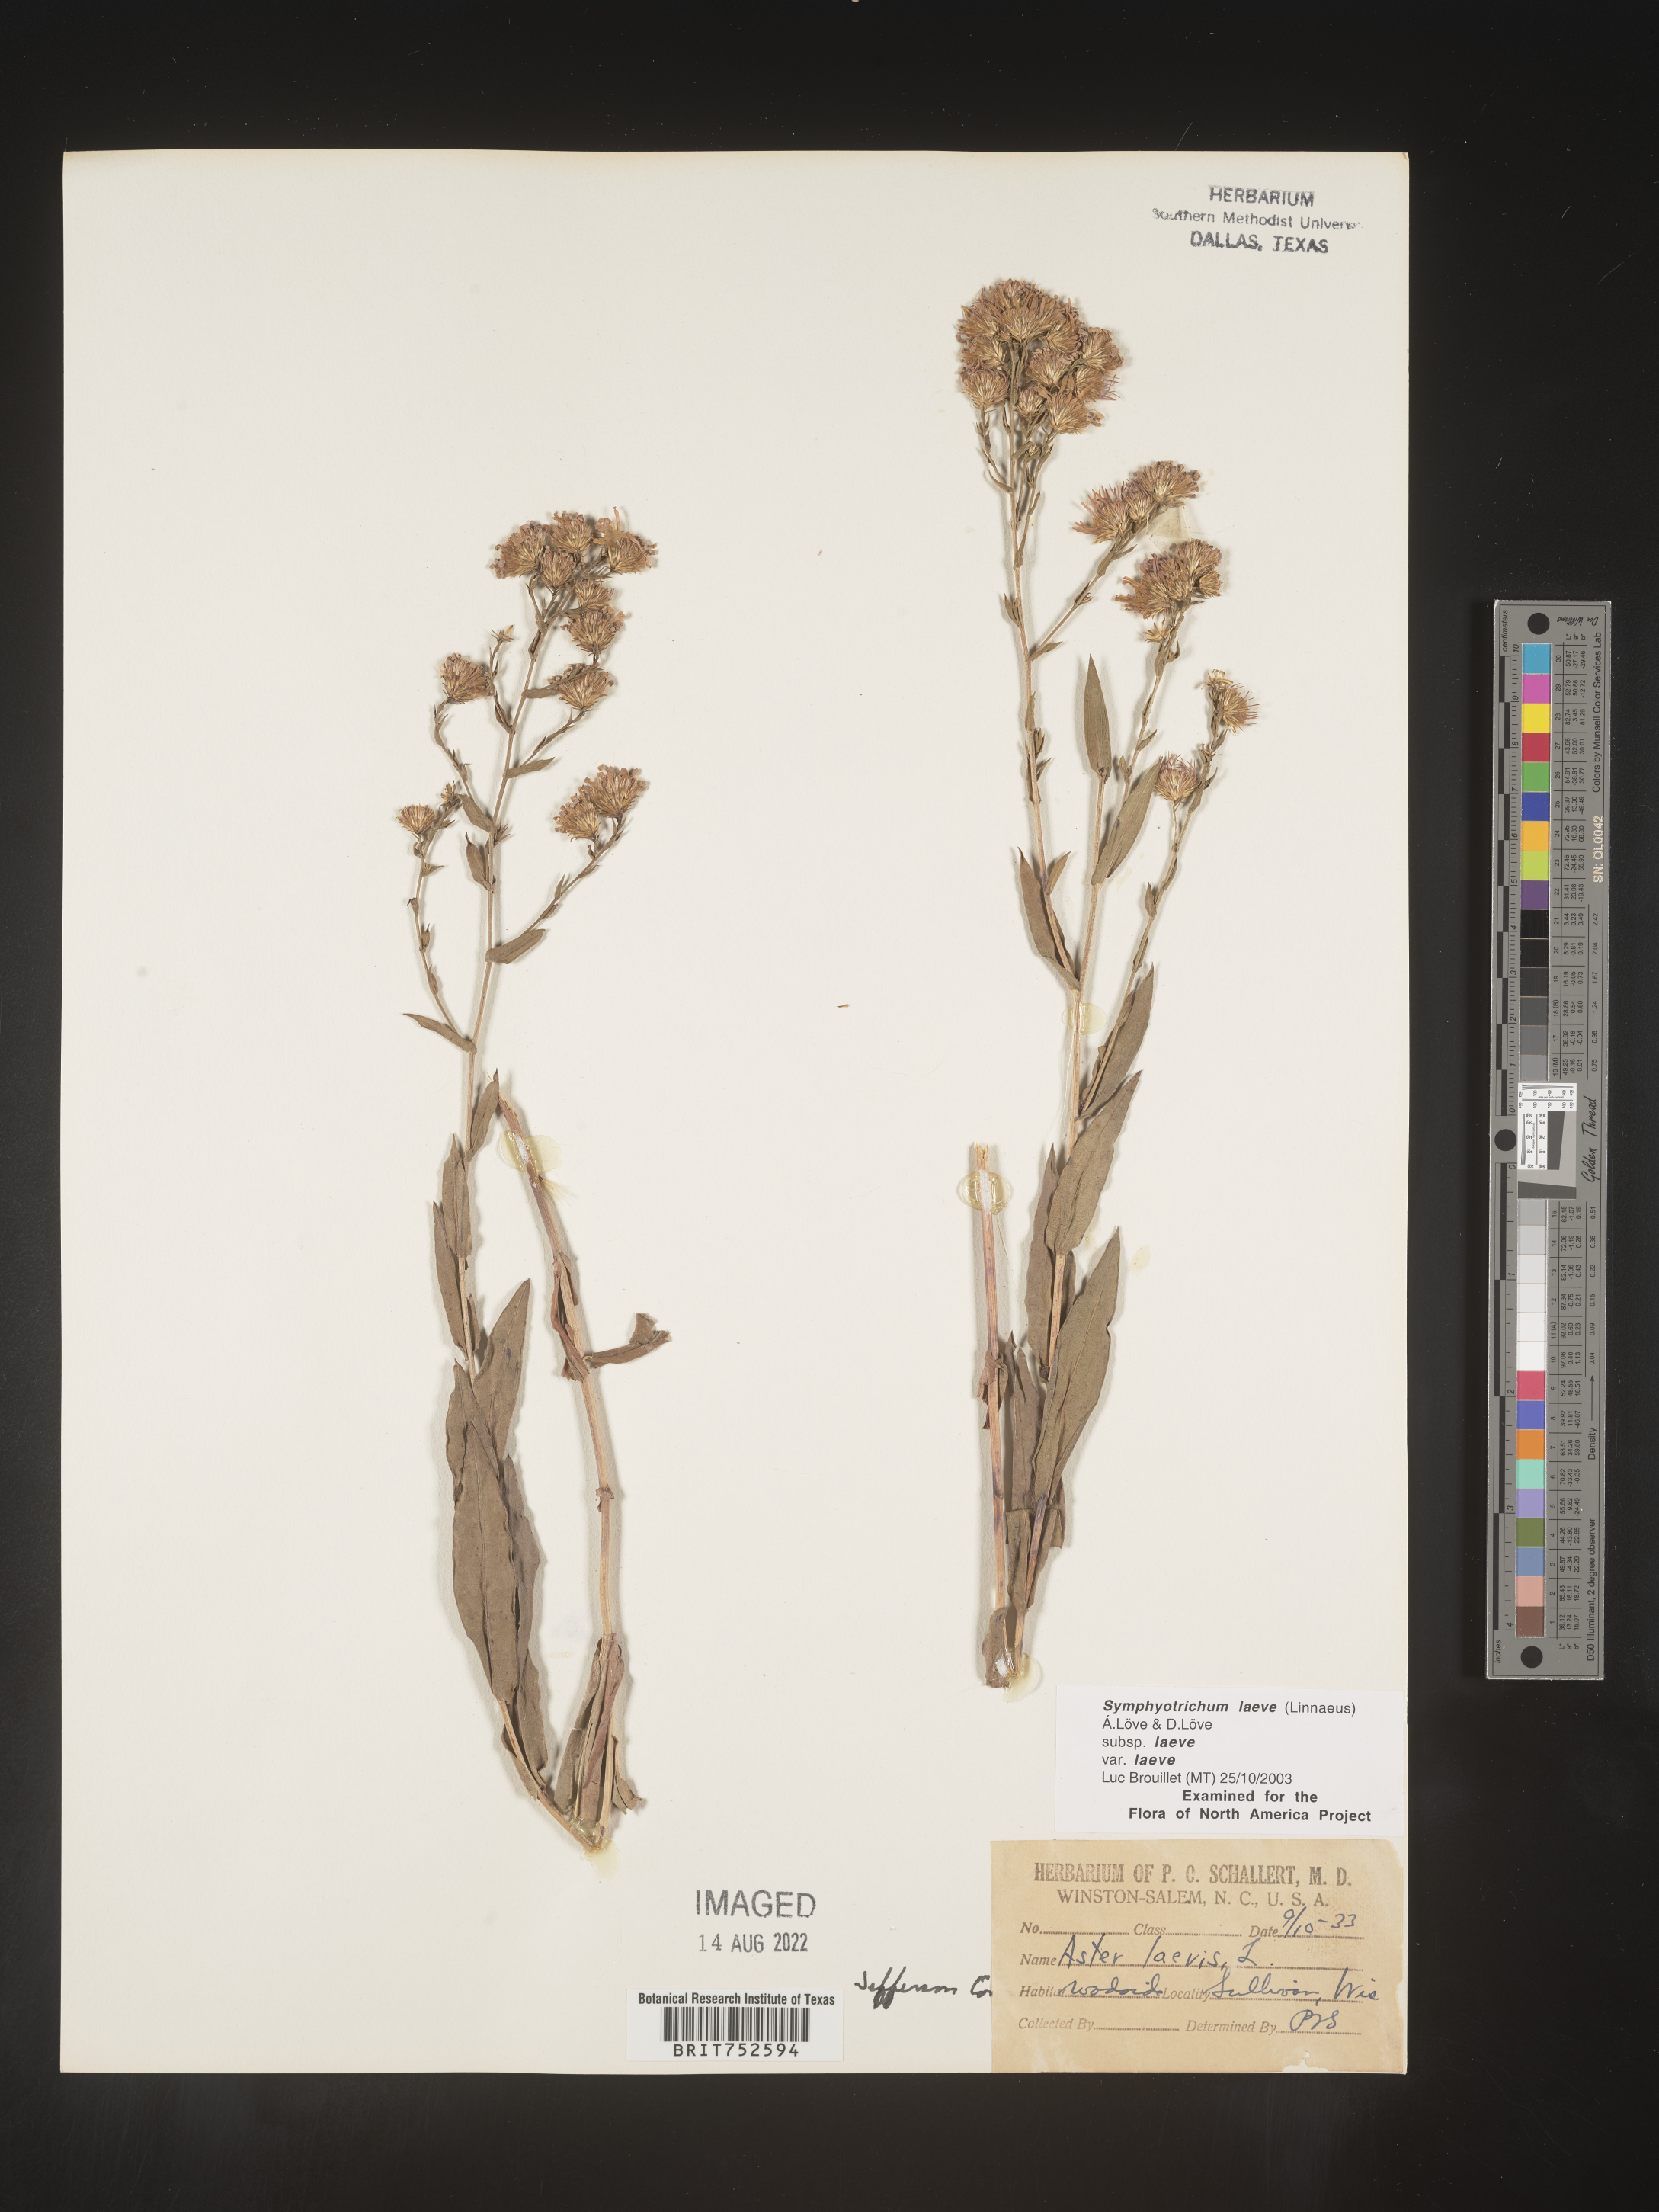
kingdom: Plantae
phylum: Tracheophyta
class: Magnoliopsida
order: Asterales
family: Asteraceae
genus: Symphyotrichum
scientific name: Symphyotrichum laeve
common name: Glaucous aster
